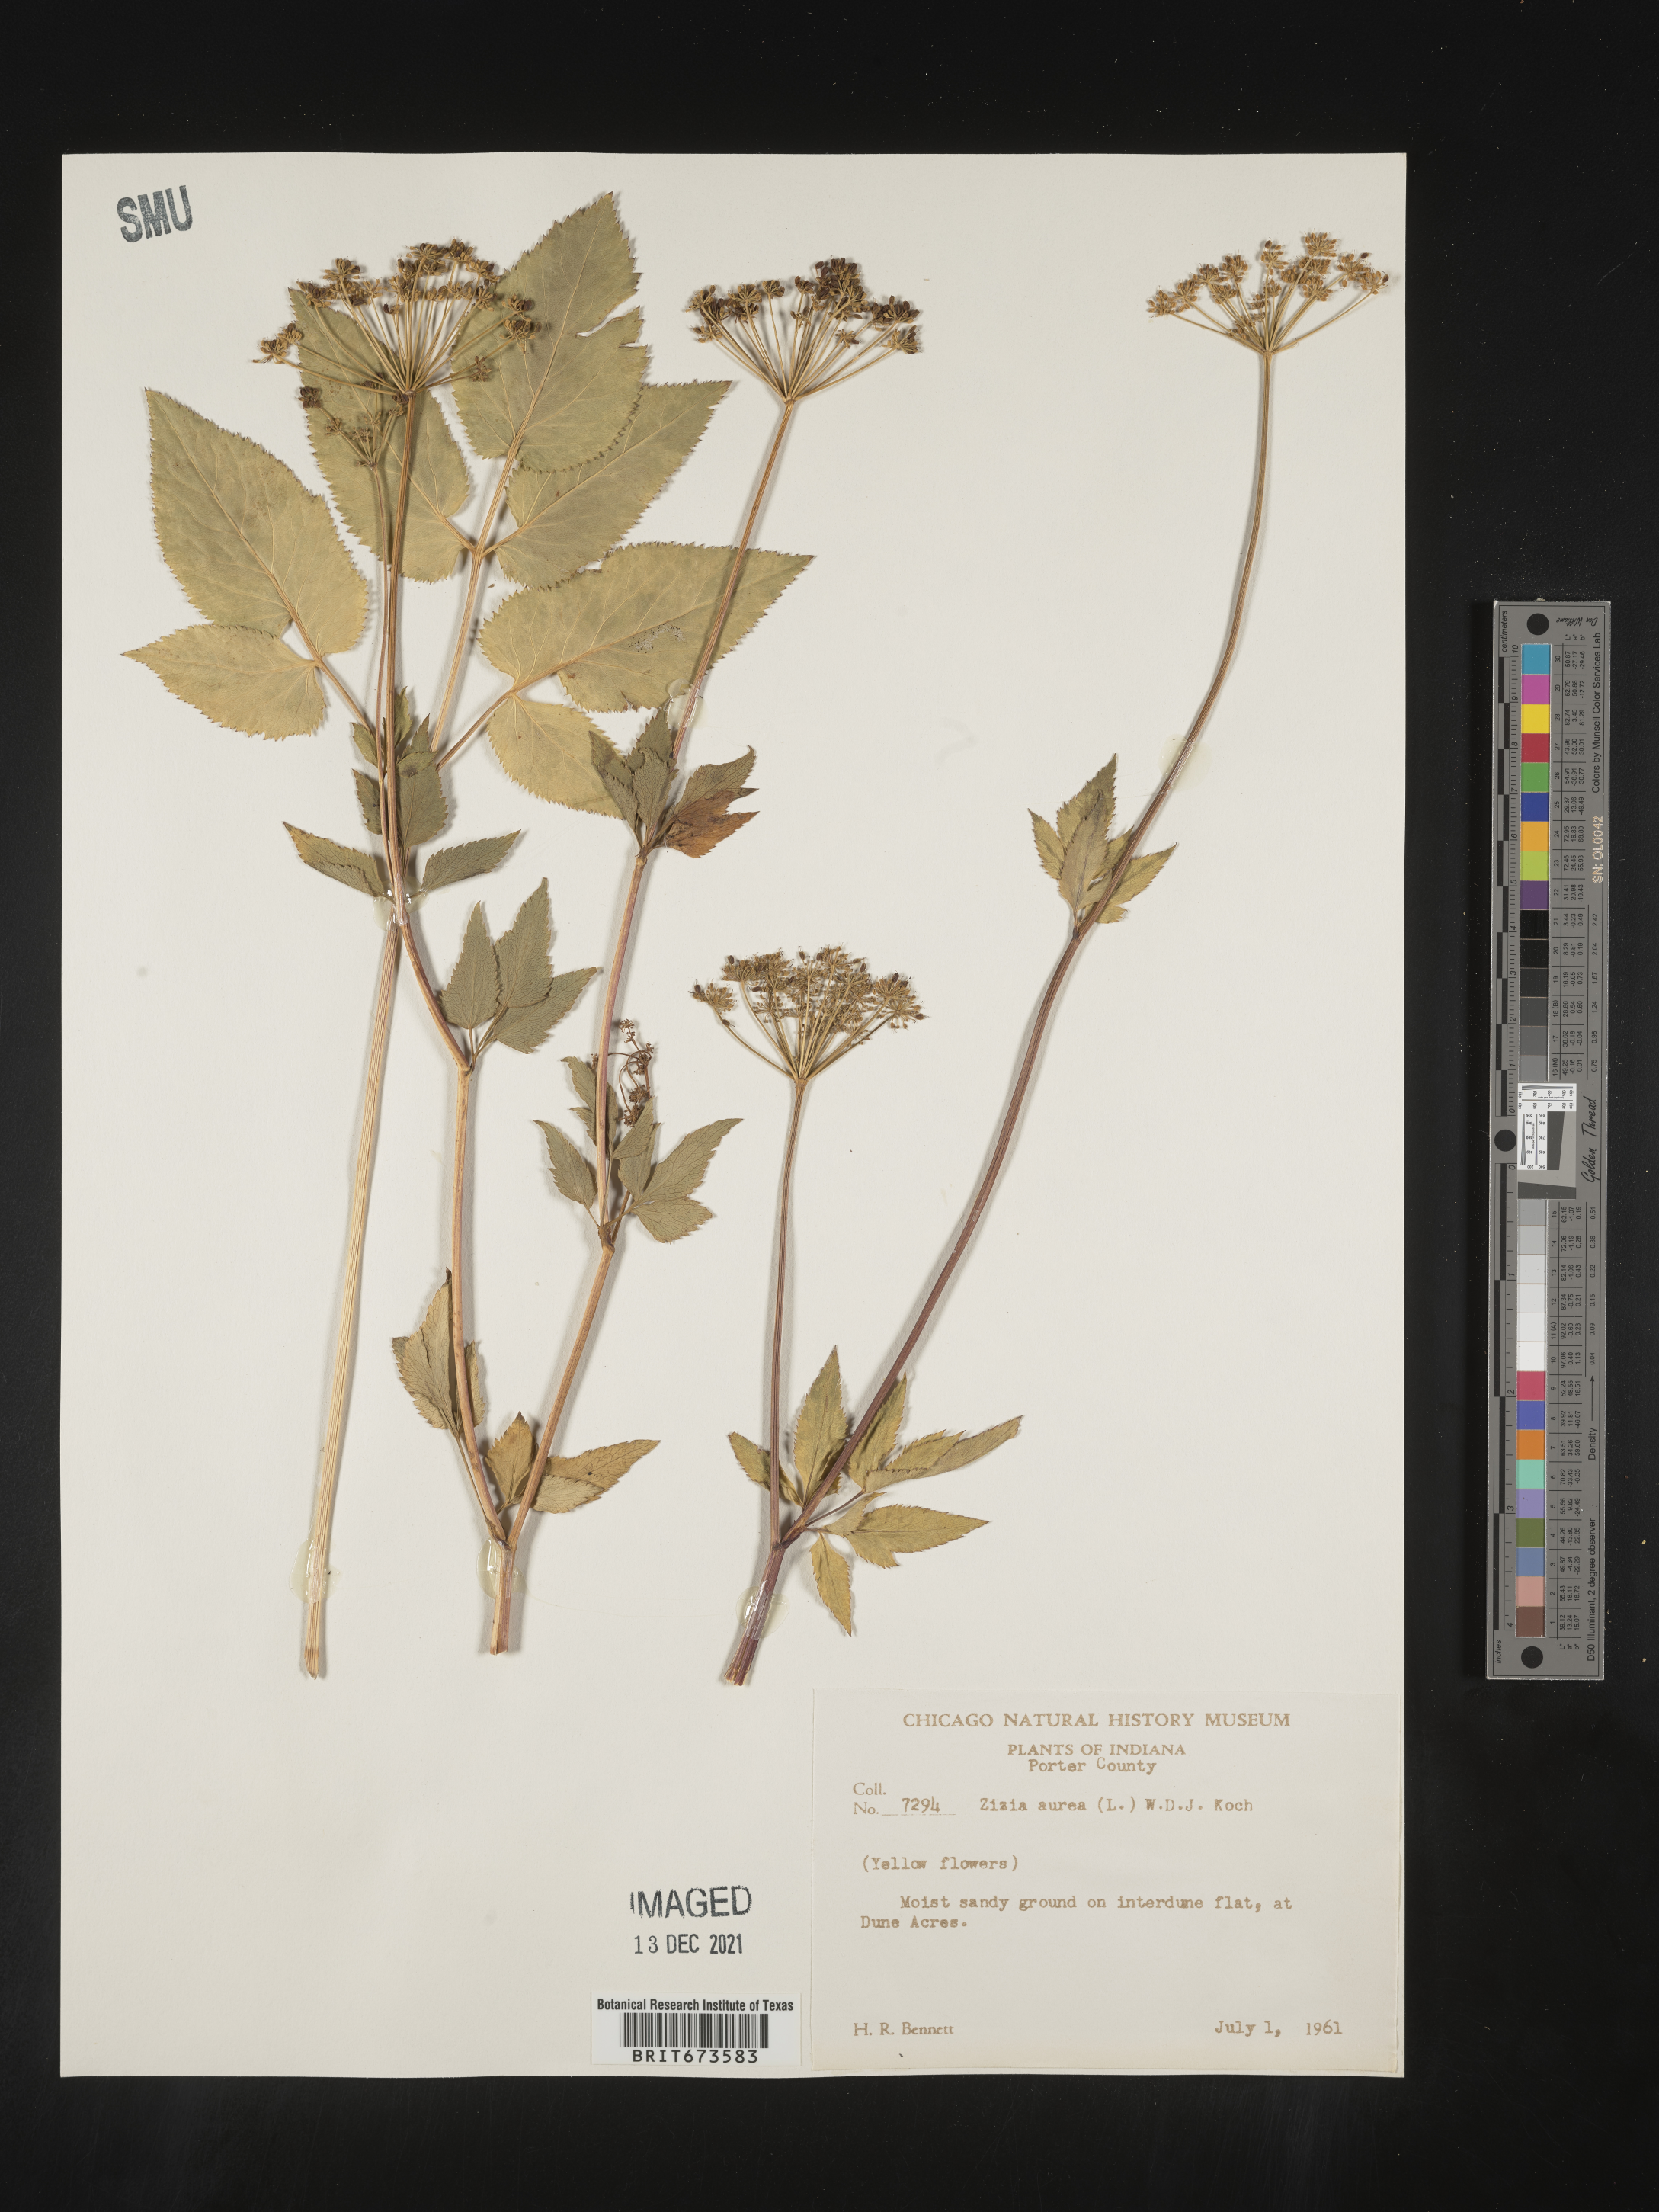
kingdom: Plantae
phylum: Tracheophyta
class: Magnoliopsida
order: Apiales
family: Apiaceae
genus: Zizia
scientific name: Zizia aurea
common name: Golden alexanders
